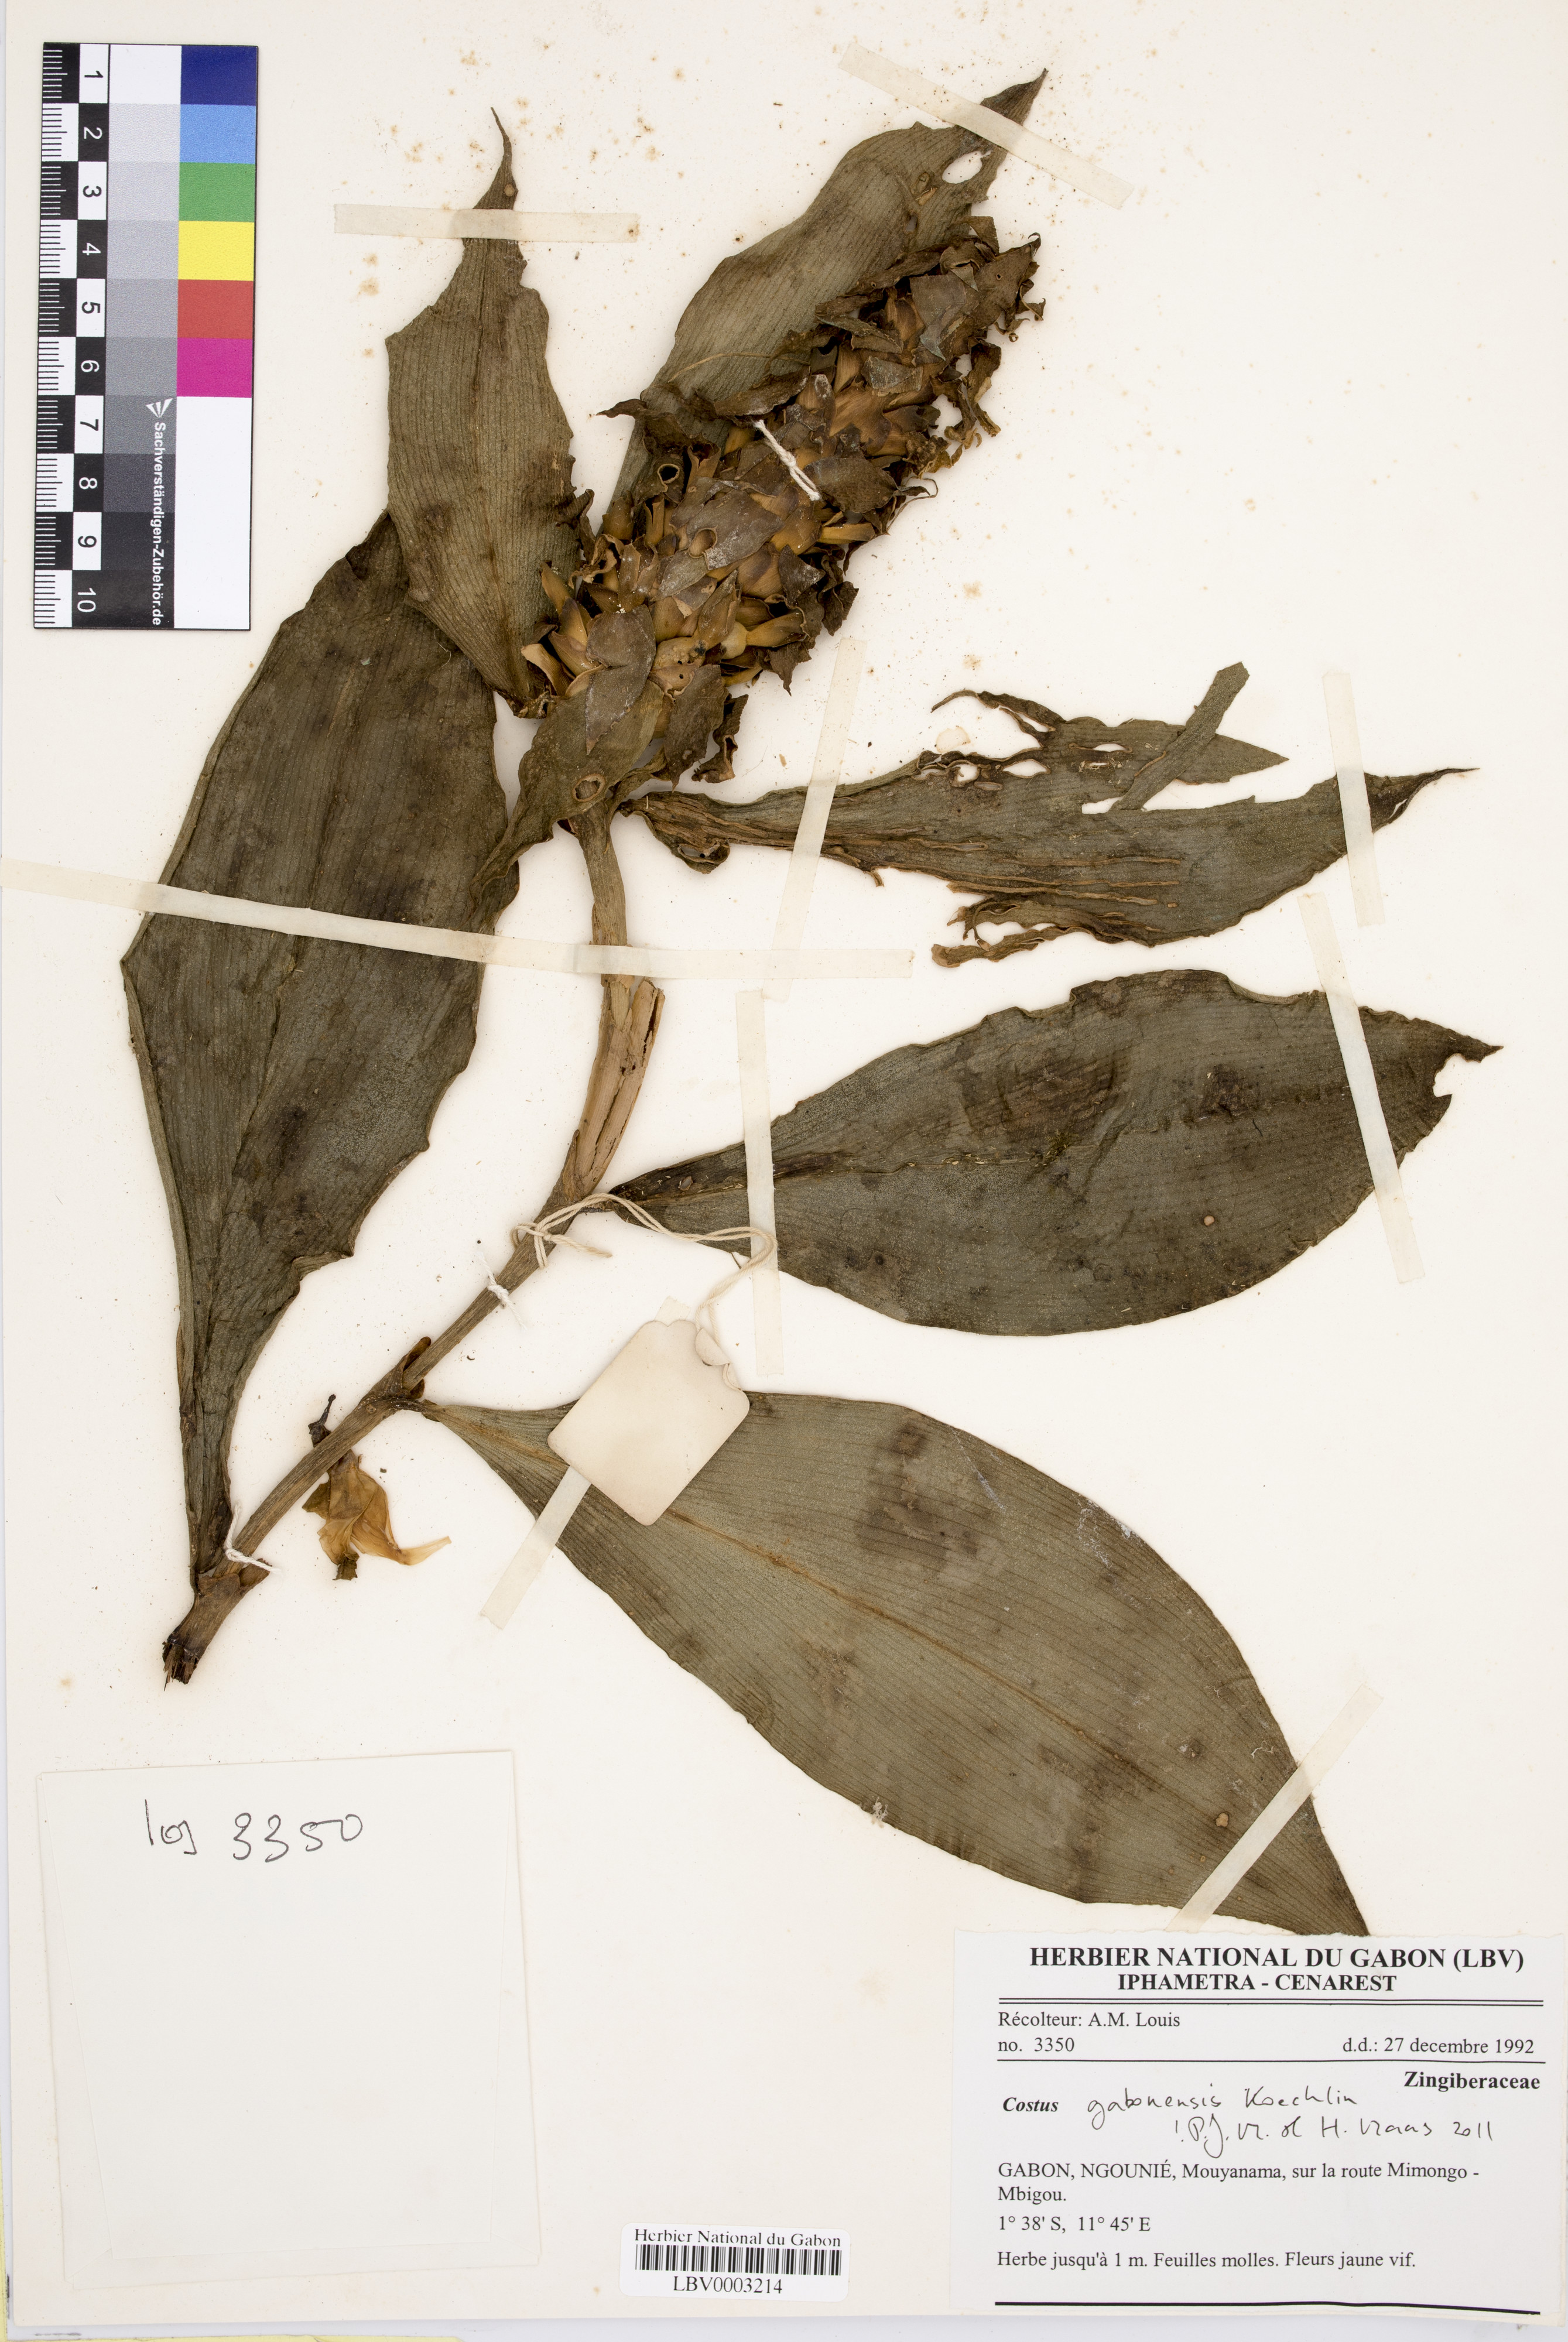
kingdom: Plantae
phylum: Tracheophyta
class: Liliopsida
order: Zingiberales
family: Costaceae
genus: Costus
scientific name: Costus
